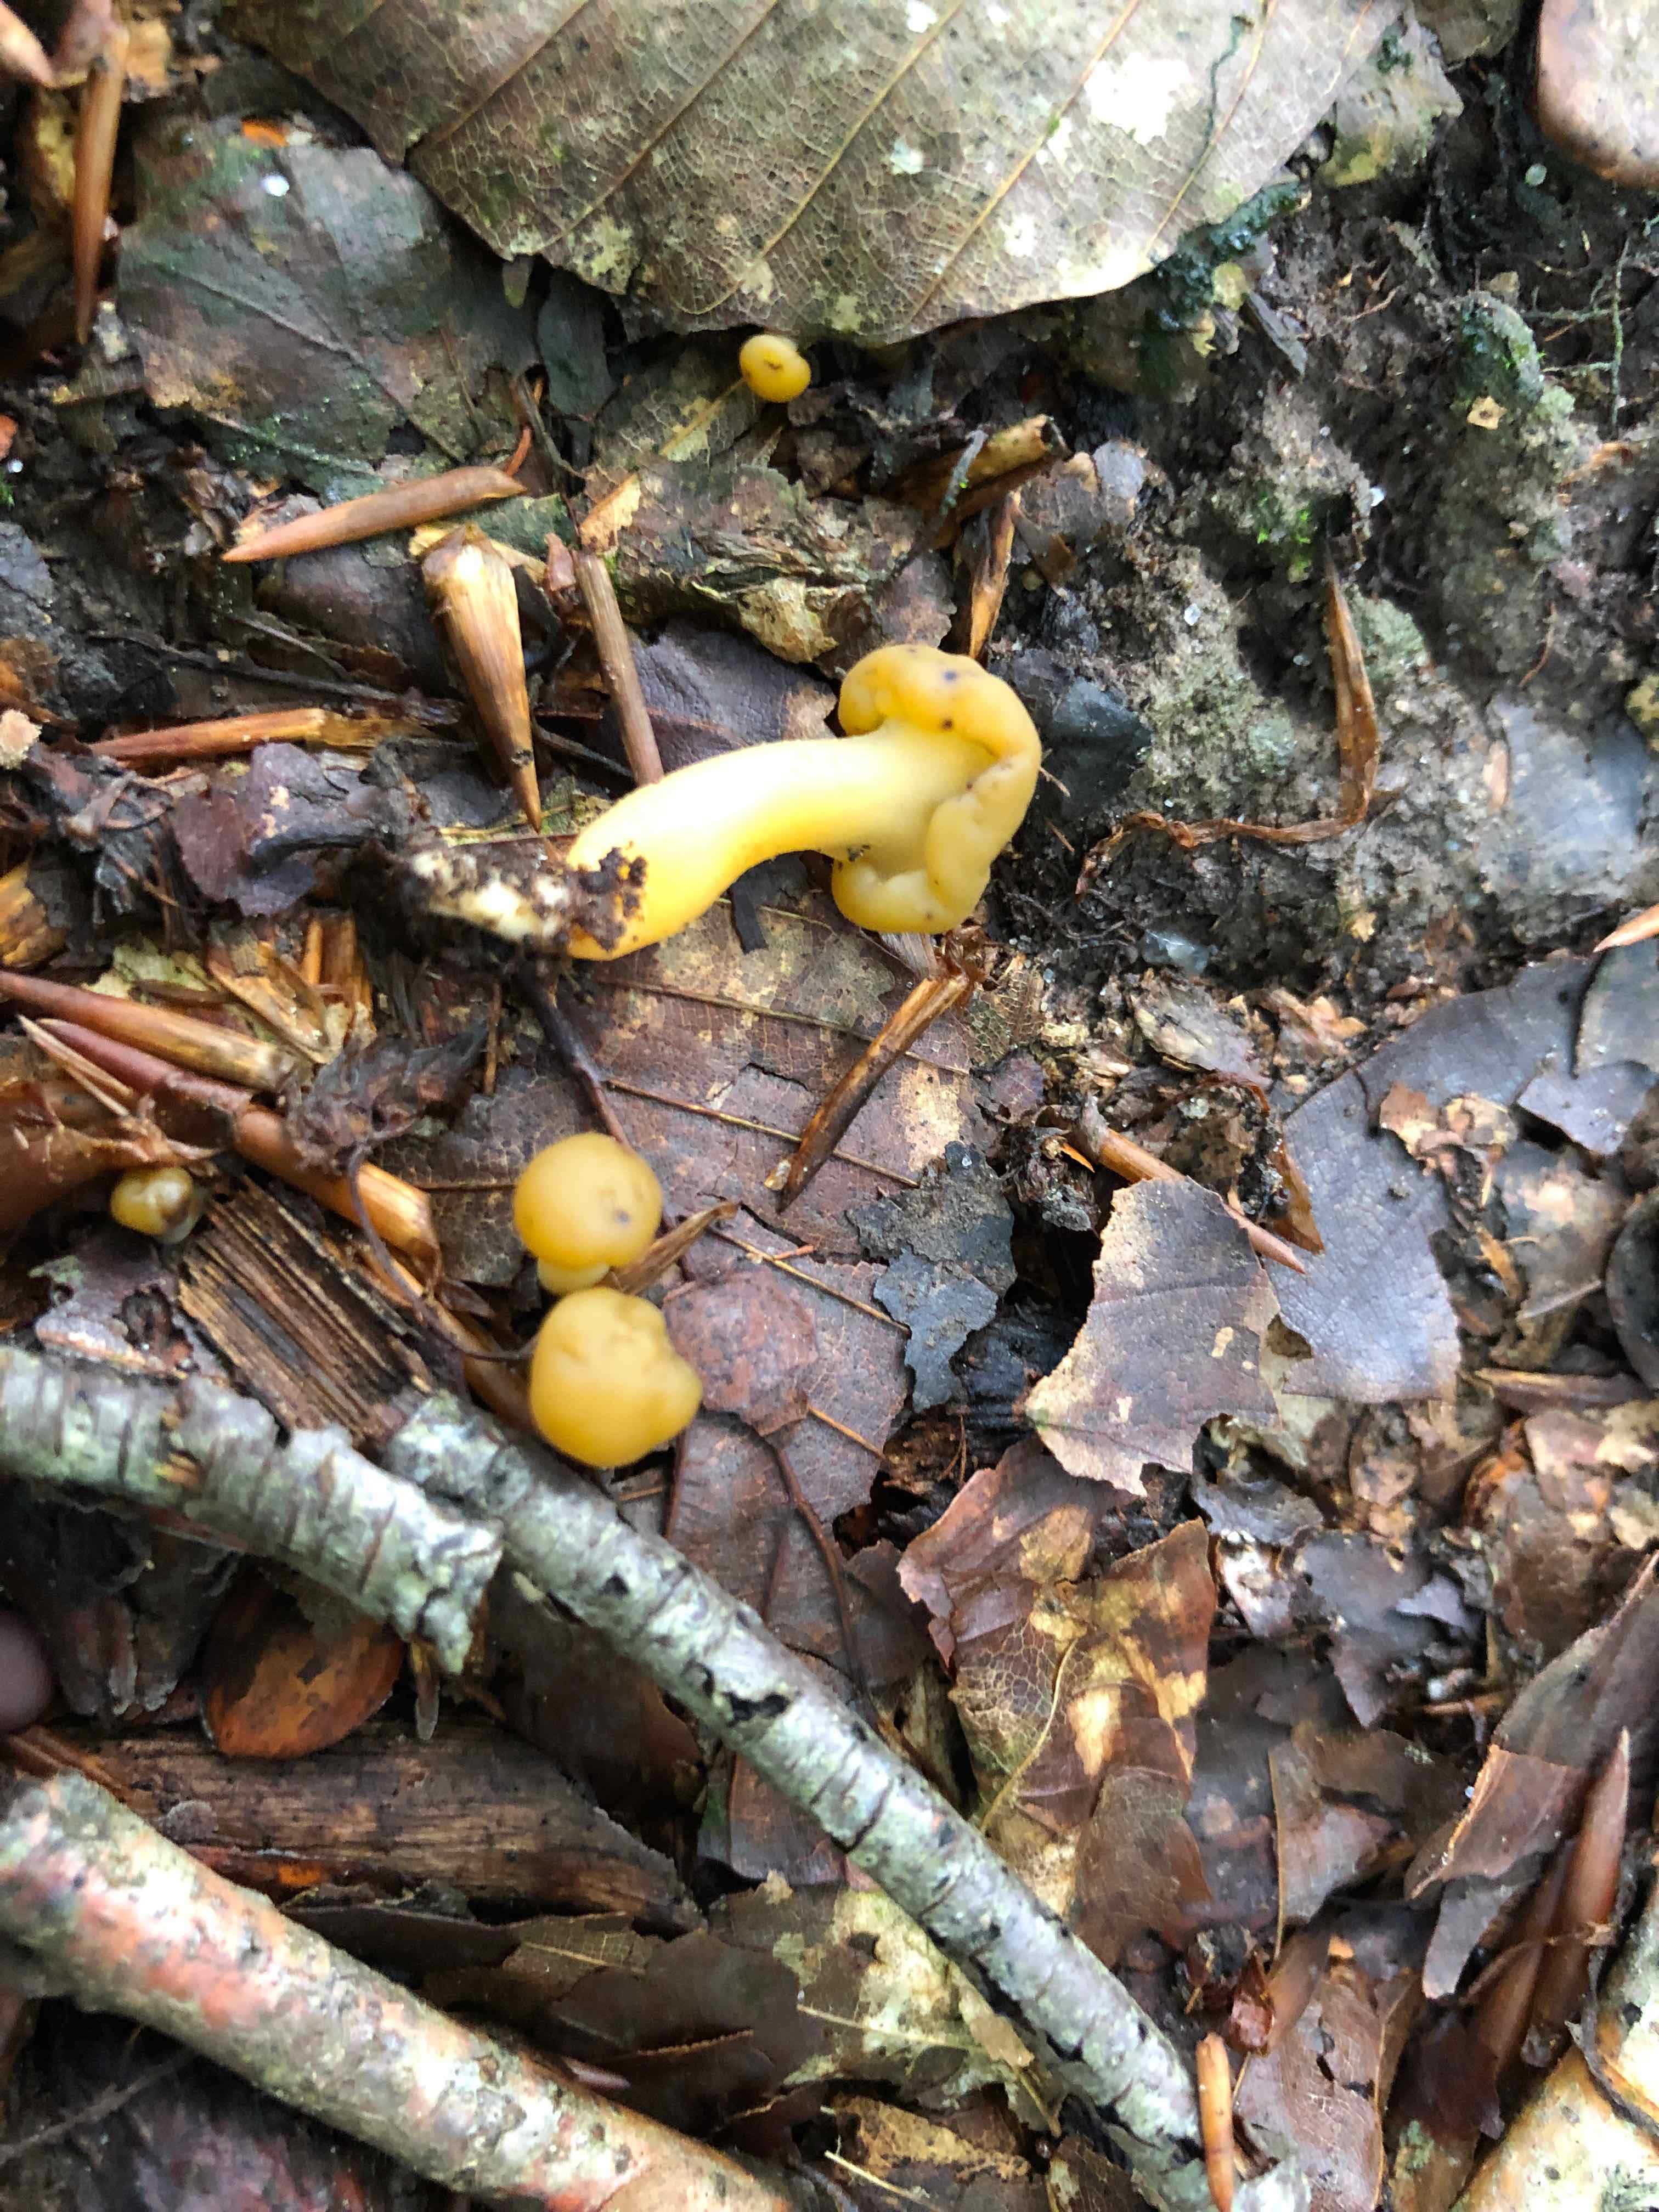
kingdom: Fungi
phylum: Ascomycota
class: Leotiomycetes
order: Leotiales
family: Leotiaceae
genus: Leotia
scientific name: Leotia lubrica
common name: ravsvamp
